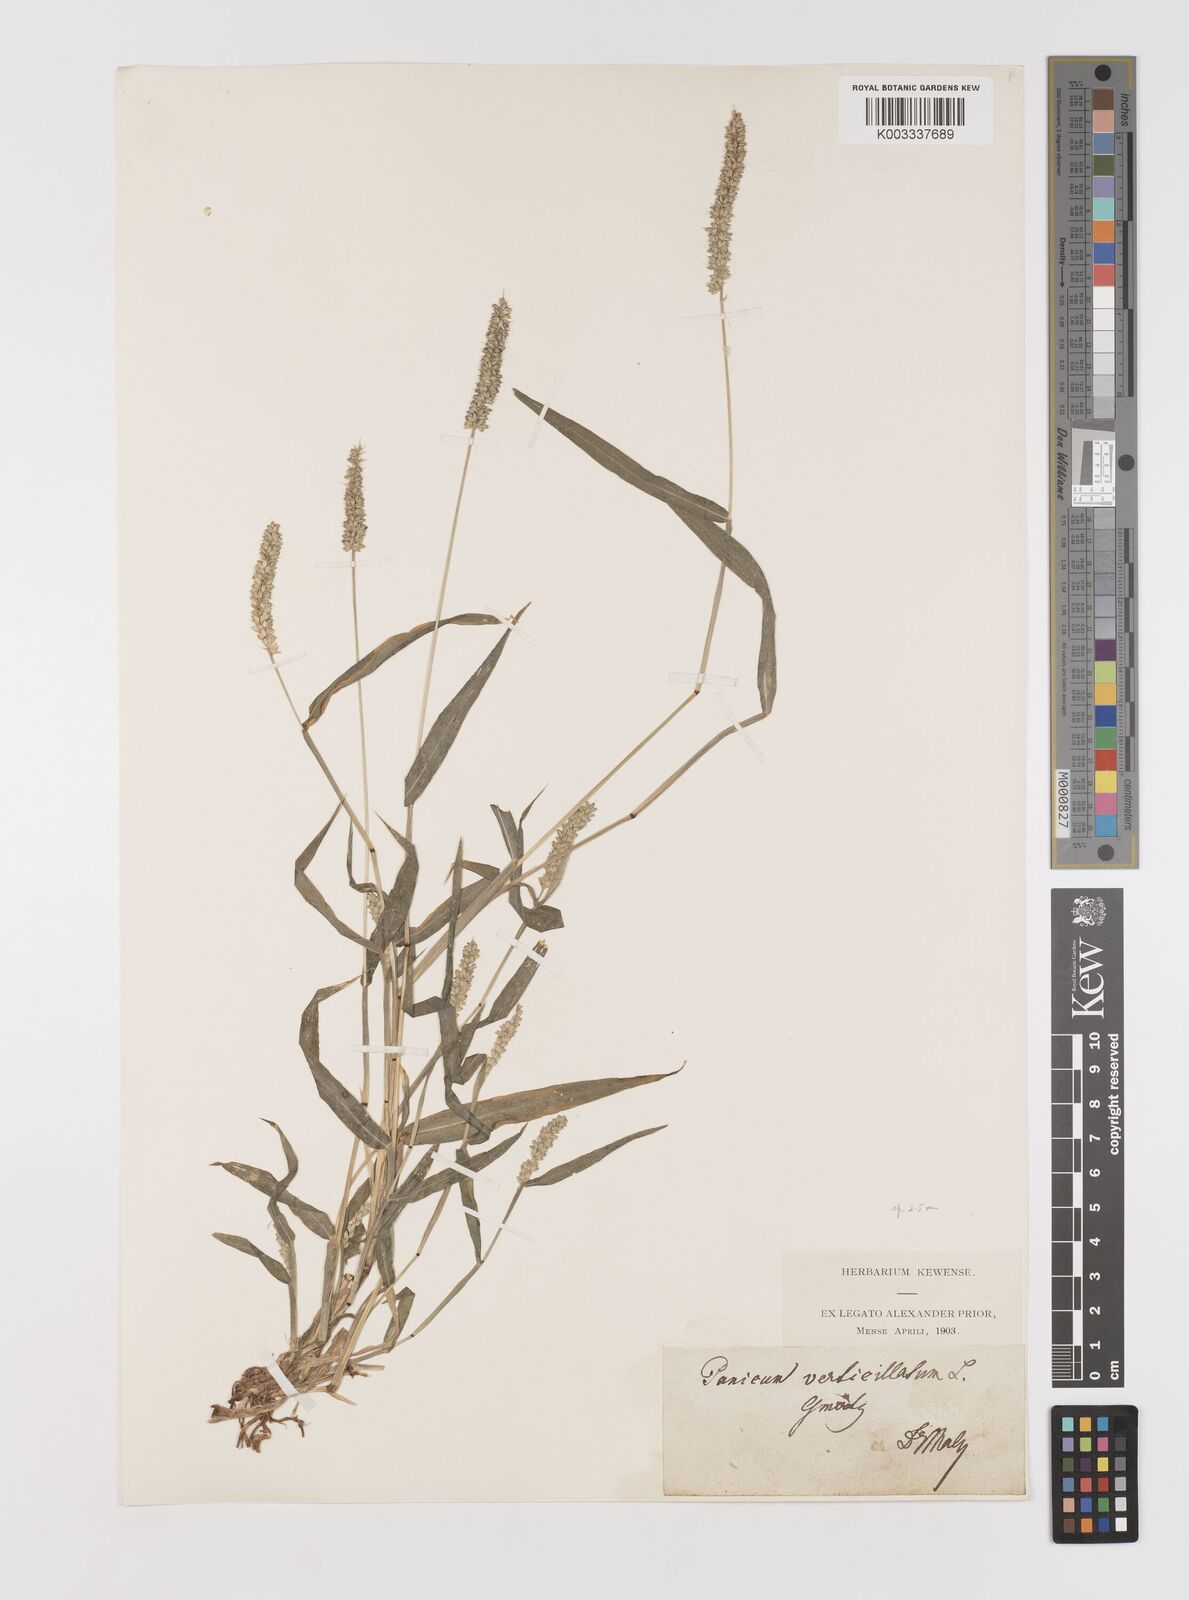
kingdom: Plantae
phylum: Tracheophyta
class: Liliopsida
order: Poales
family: Poaceae
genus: Setaria
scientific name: Setaria verticillata
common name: Hooked bristlegrass
